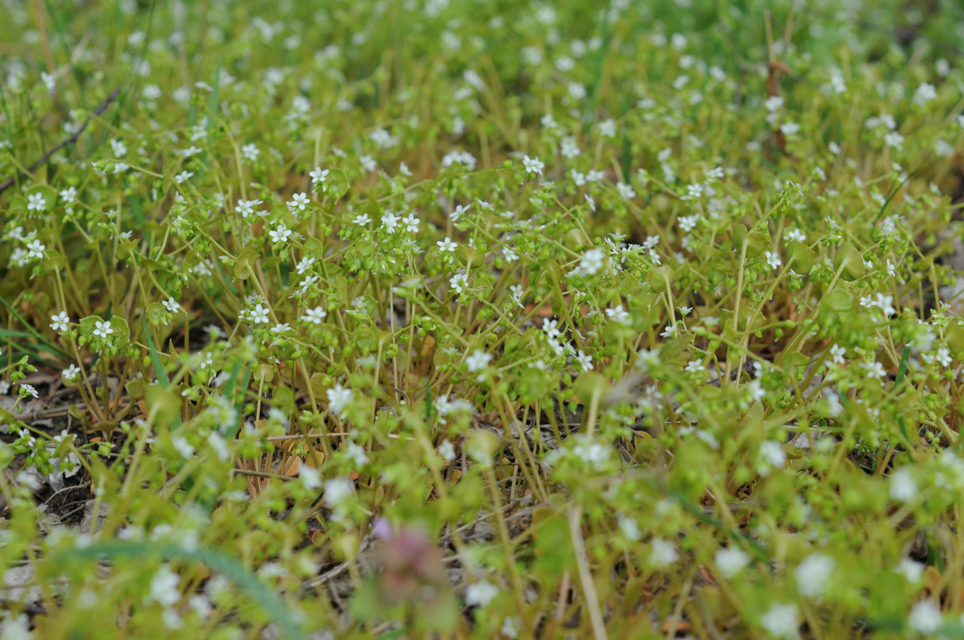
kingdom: Plantae
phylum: Tracheophyta
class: Magnoliopsida
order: Caryophyllales
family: Montiaceae
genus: Claytonia
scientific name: Claytonia perfoliata
